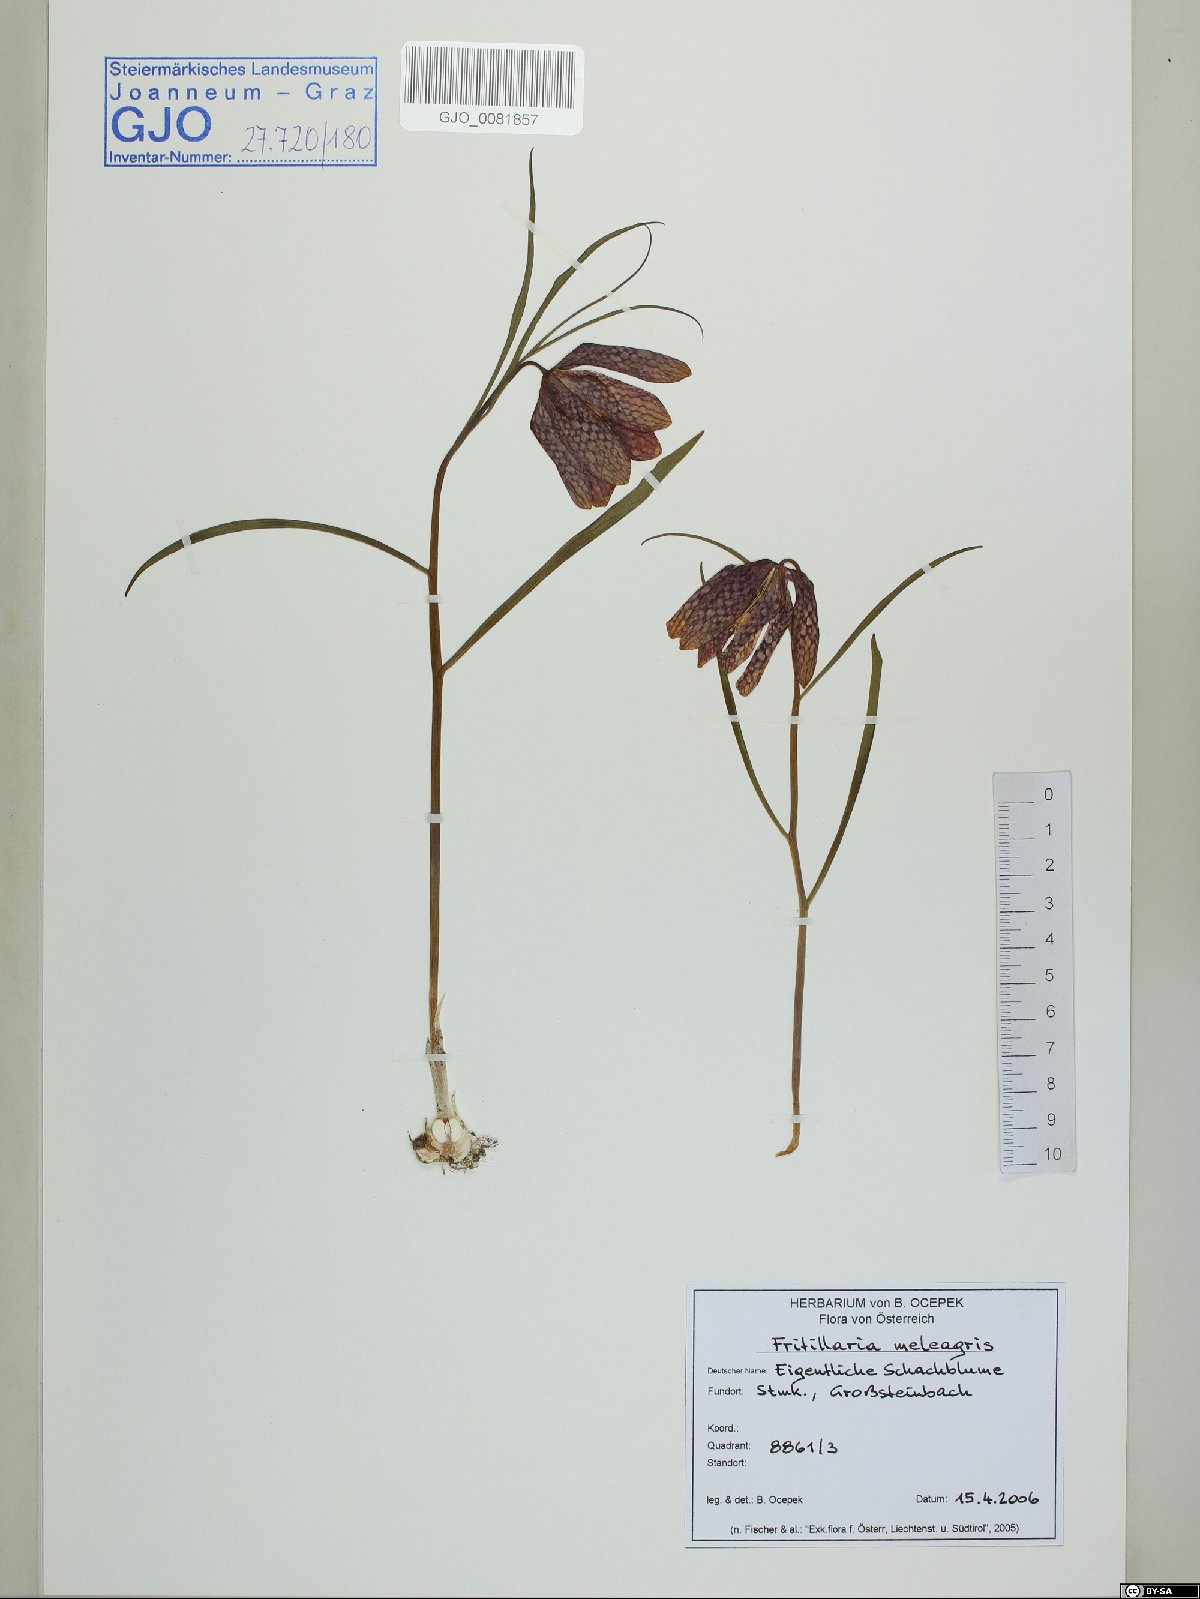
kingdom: Plantae
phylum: Tracheophyta
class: Liliopsida
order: Liliales
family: Liliaceae
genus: Fritillaria
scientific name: Fritillaria meleagris
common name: Fritillary
